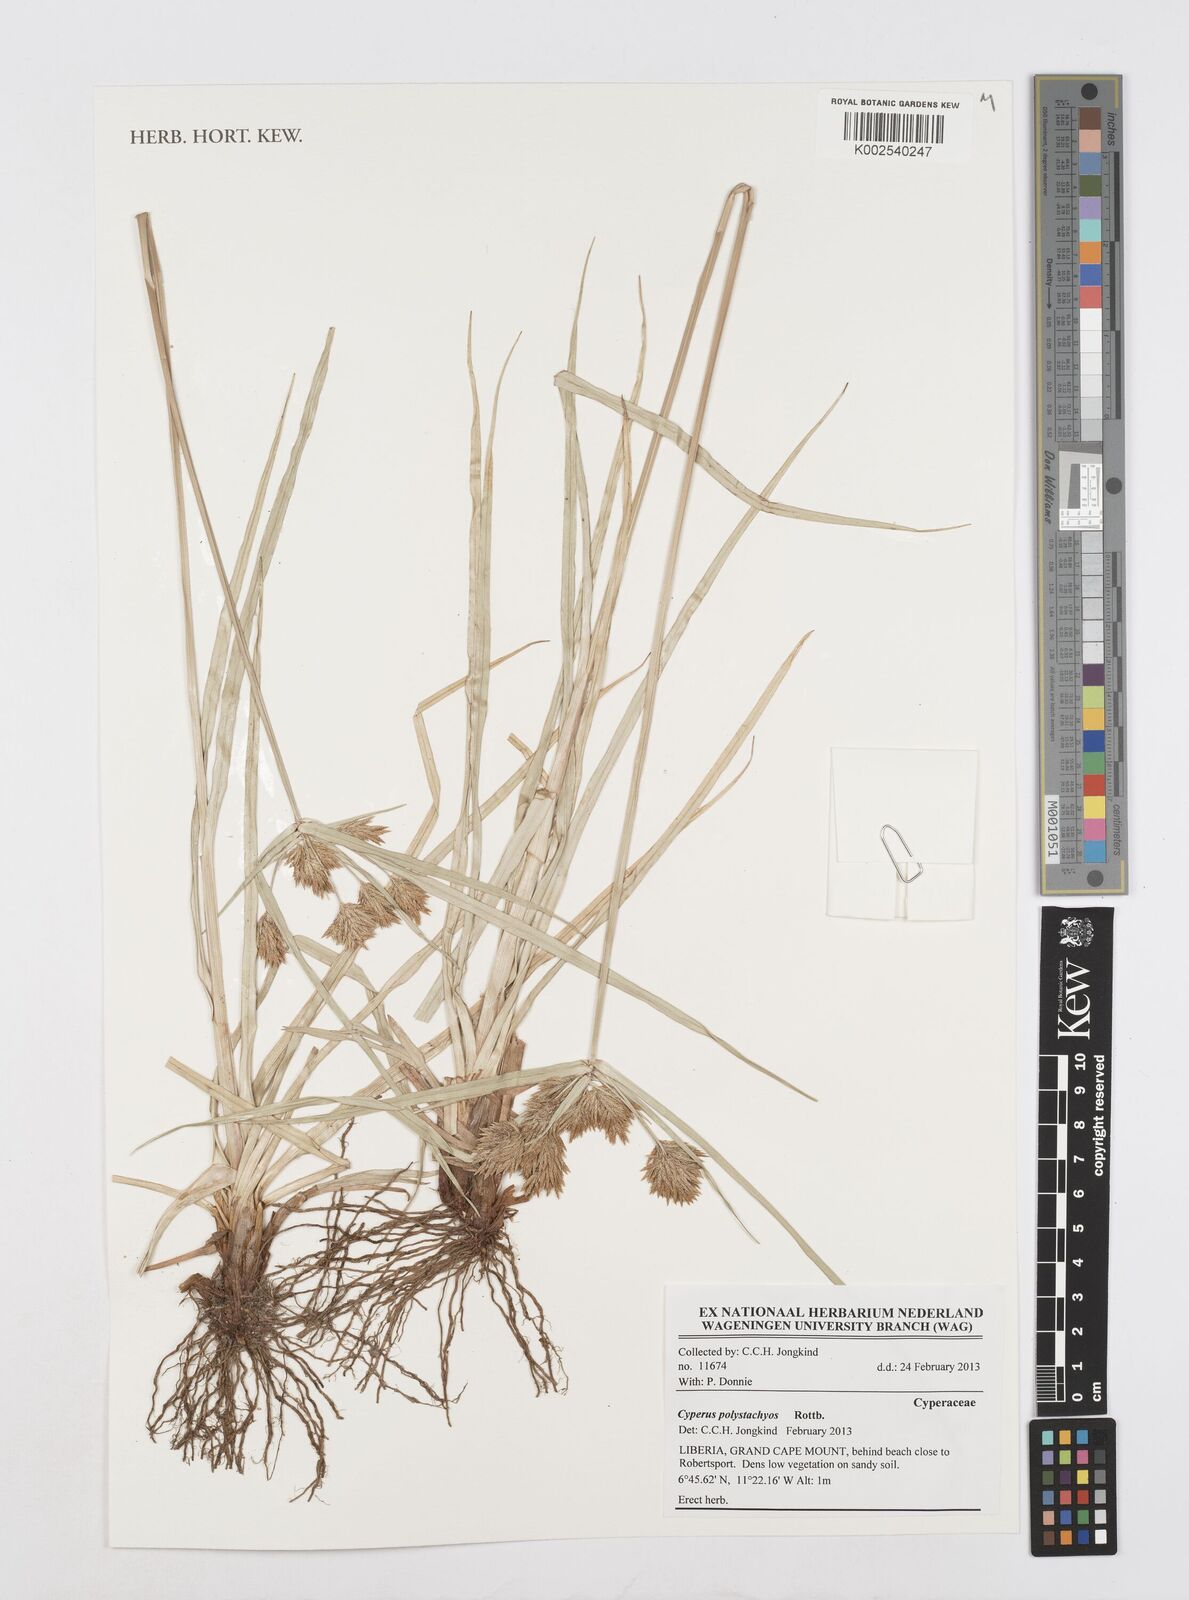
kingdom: Plantae
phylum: Tracheophyta
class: Liliopsida
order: Poales
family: Cyperaceae
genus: Cyperus
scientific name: Cyperus polystachyos
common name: Bunchy flat sedge
